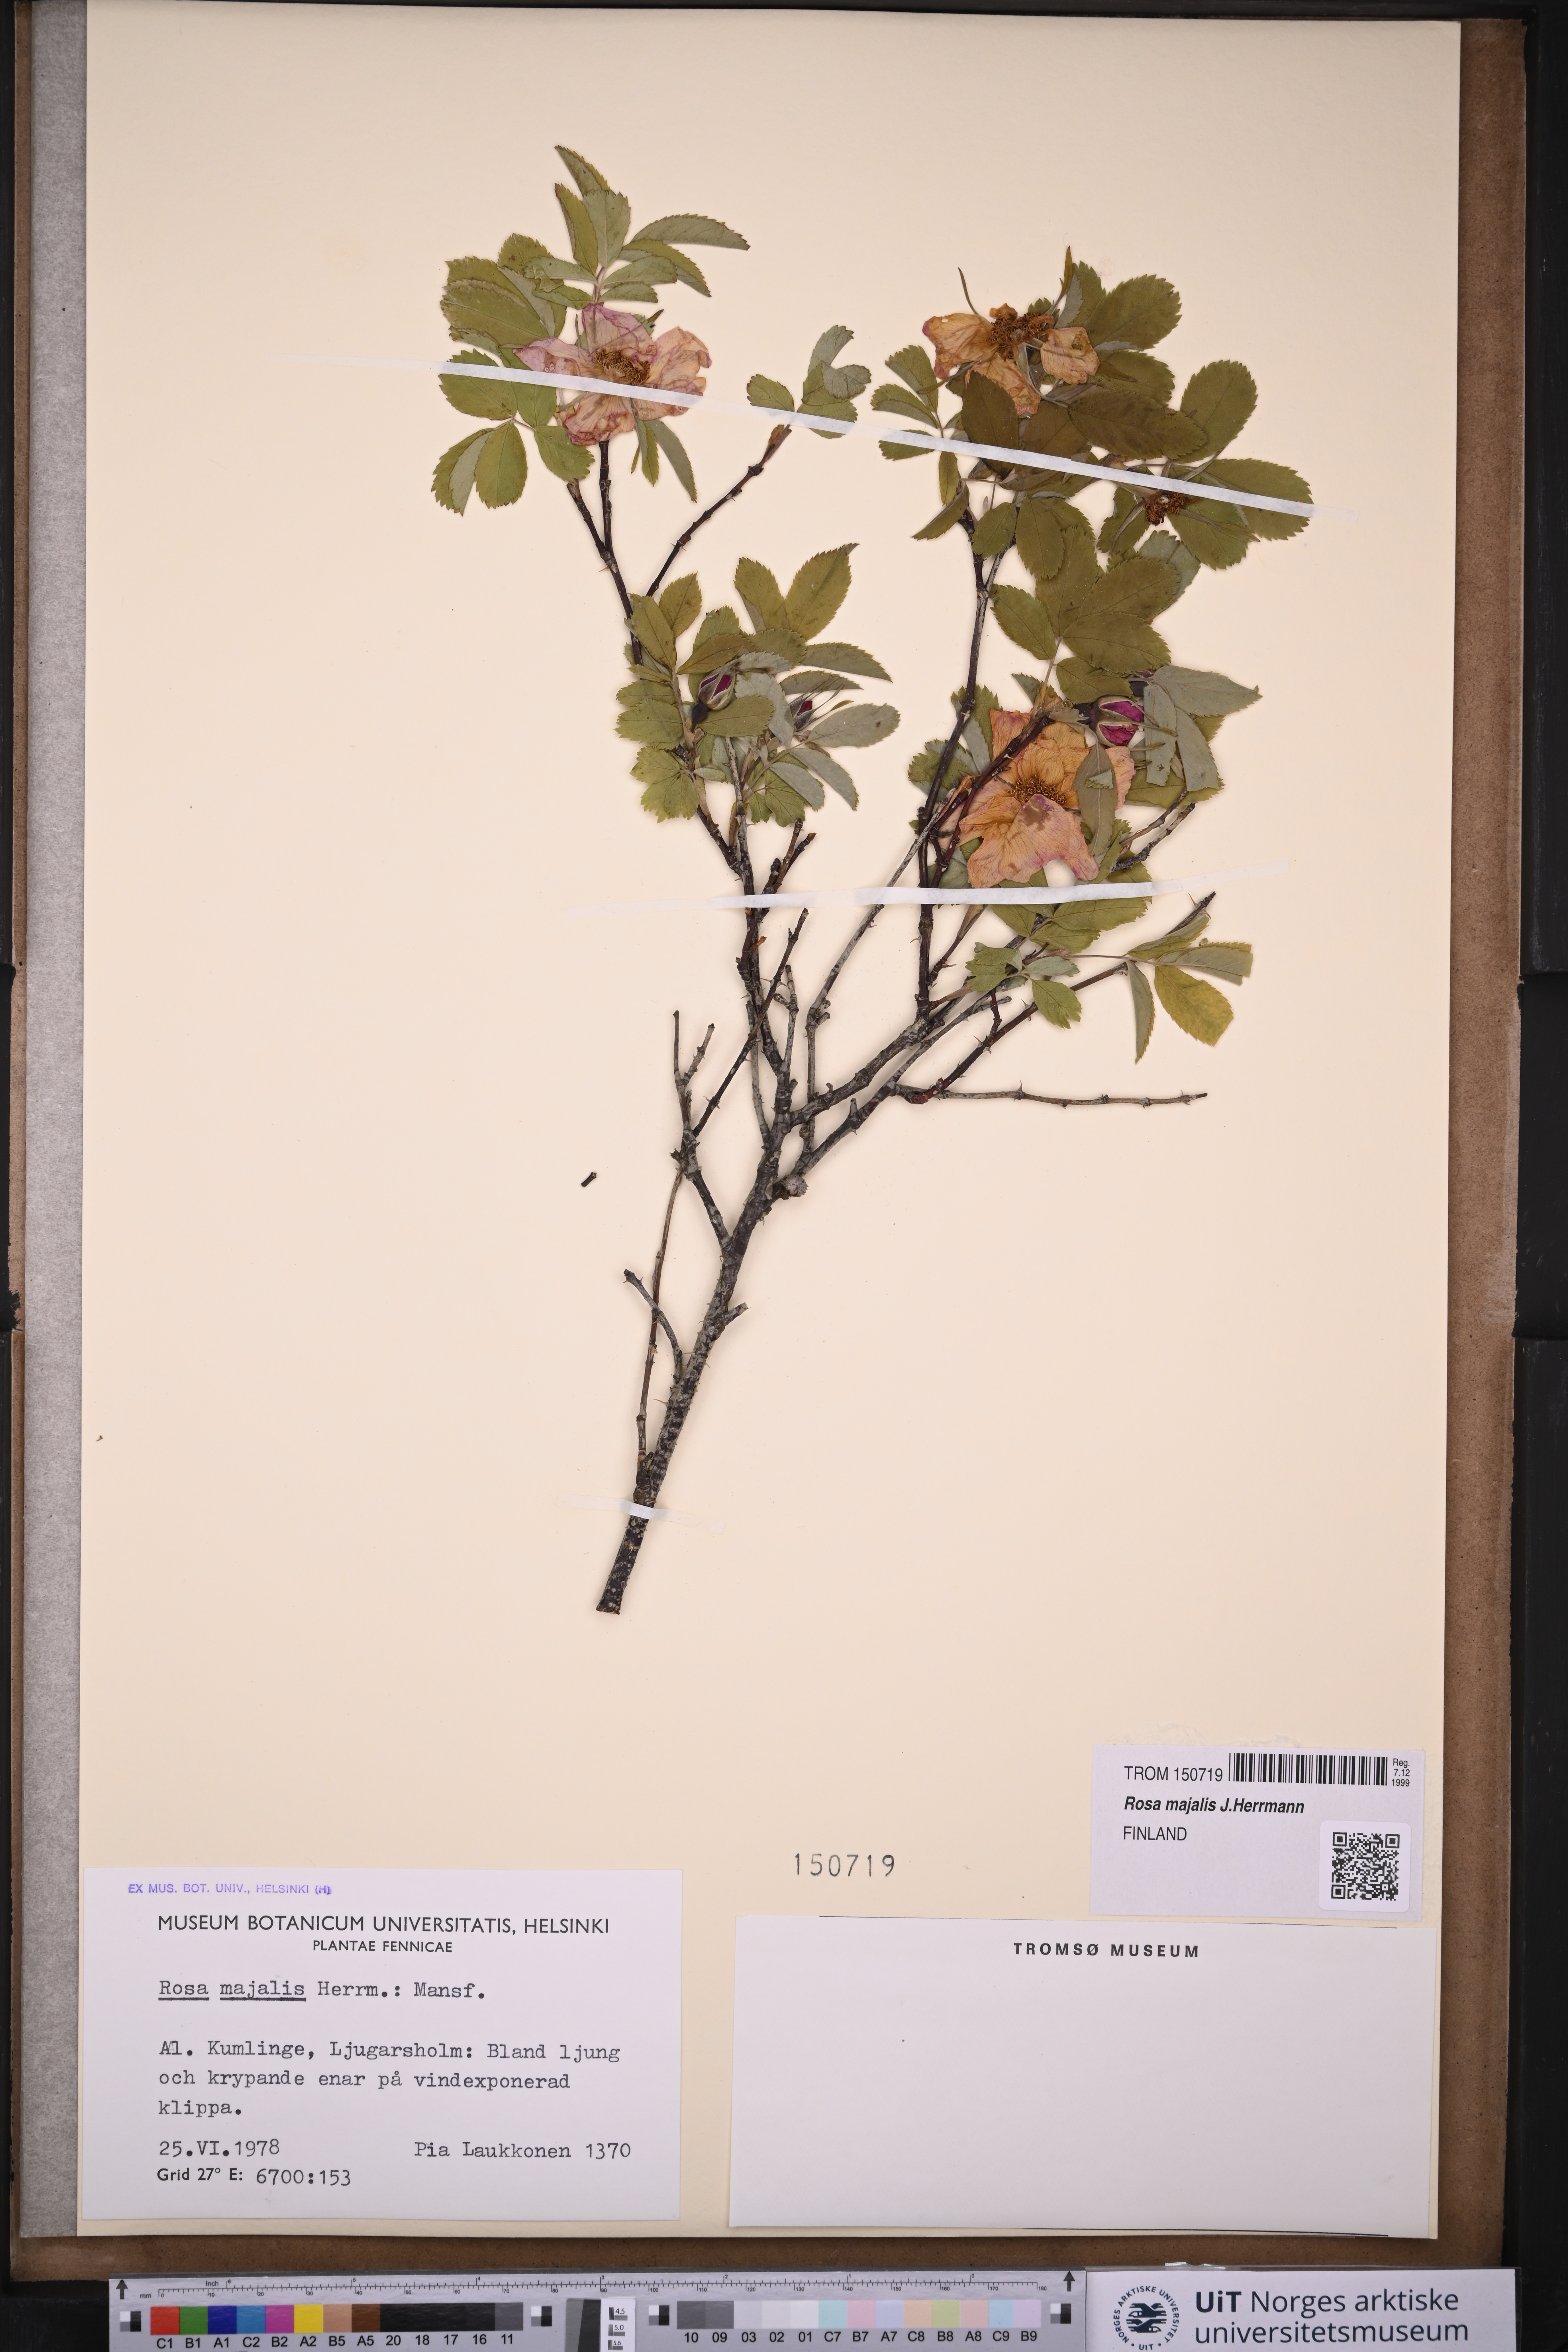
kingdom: Plantae
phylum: Tracheophyta
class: Magnoliopsida
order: Rosales
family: Rosaceae
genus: Rosa
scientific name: Rosa majalis
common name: Cinnamon rose
